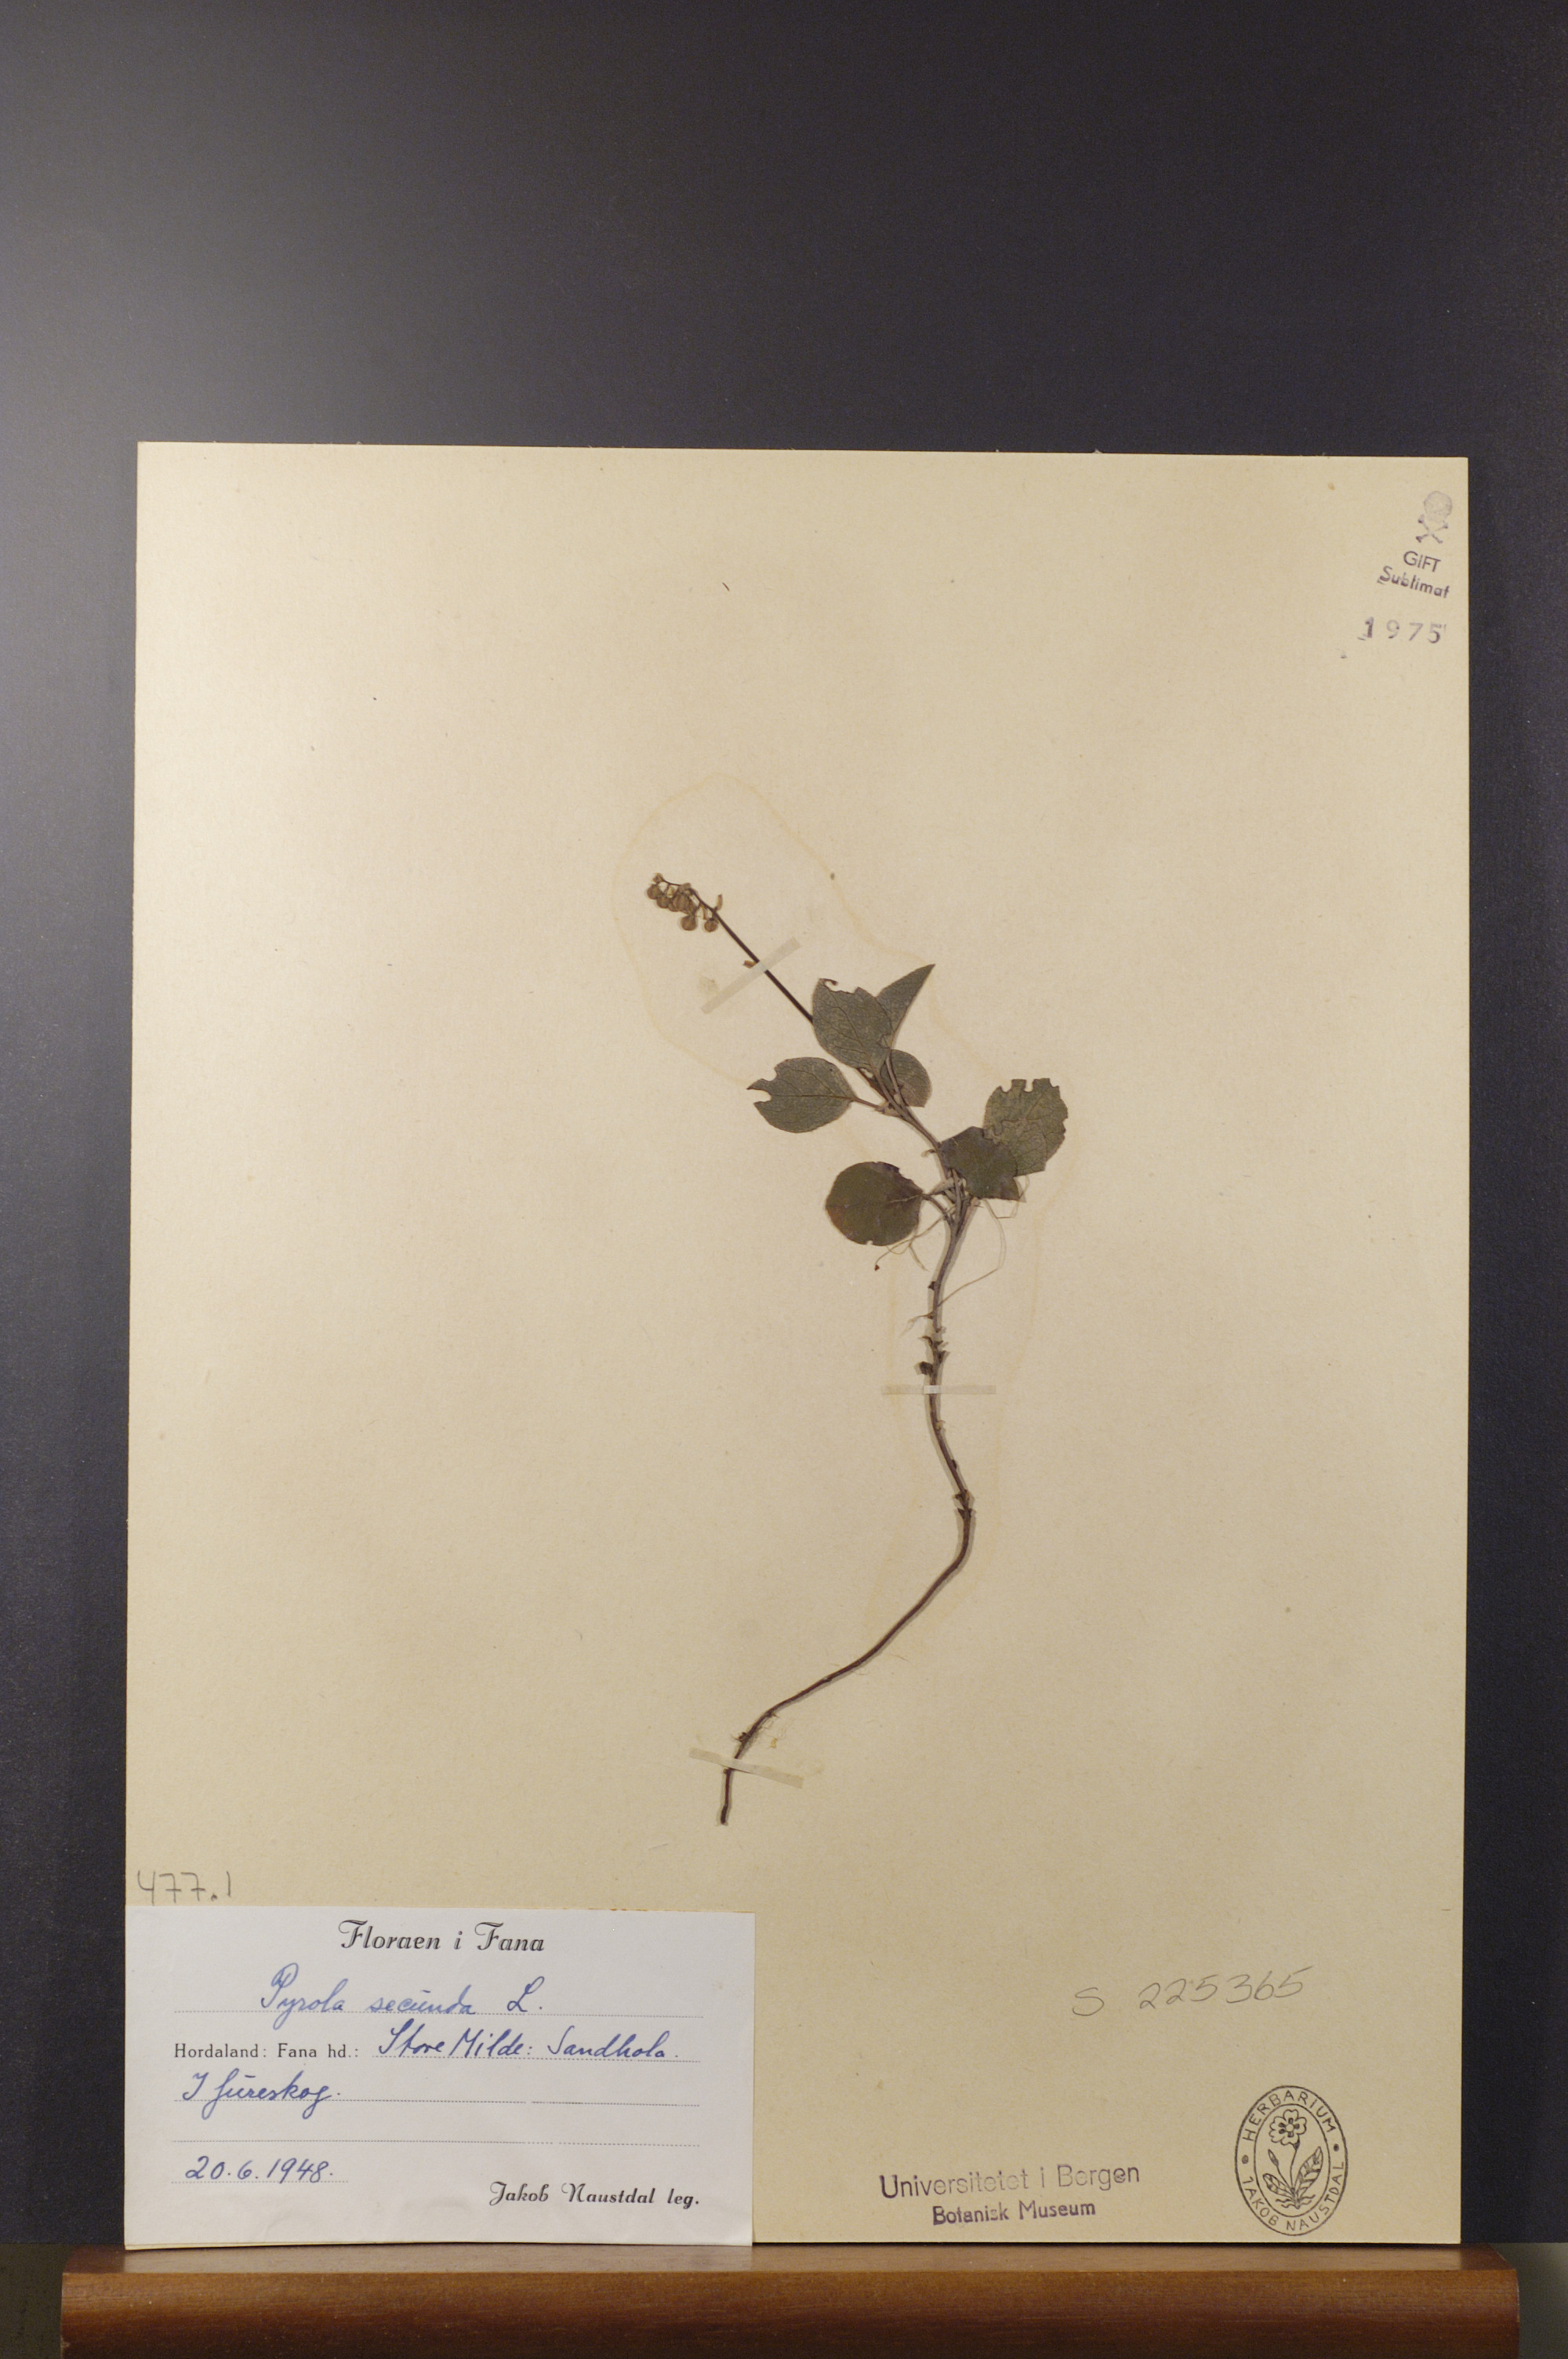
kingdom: Plantae
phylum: Tracheophyta
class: Magnoliopsida
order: Ericales
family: Ericaceae
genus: Orthilia
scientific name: Orthilia secunda
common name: One-sided orthilia
